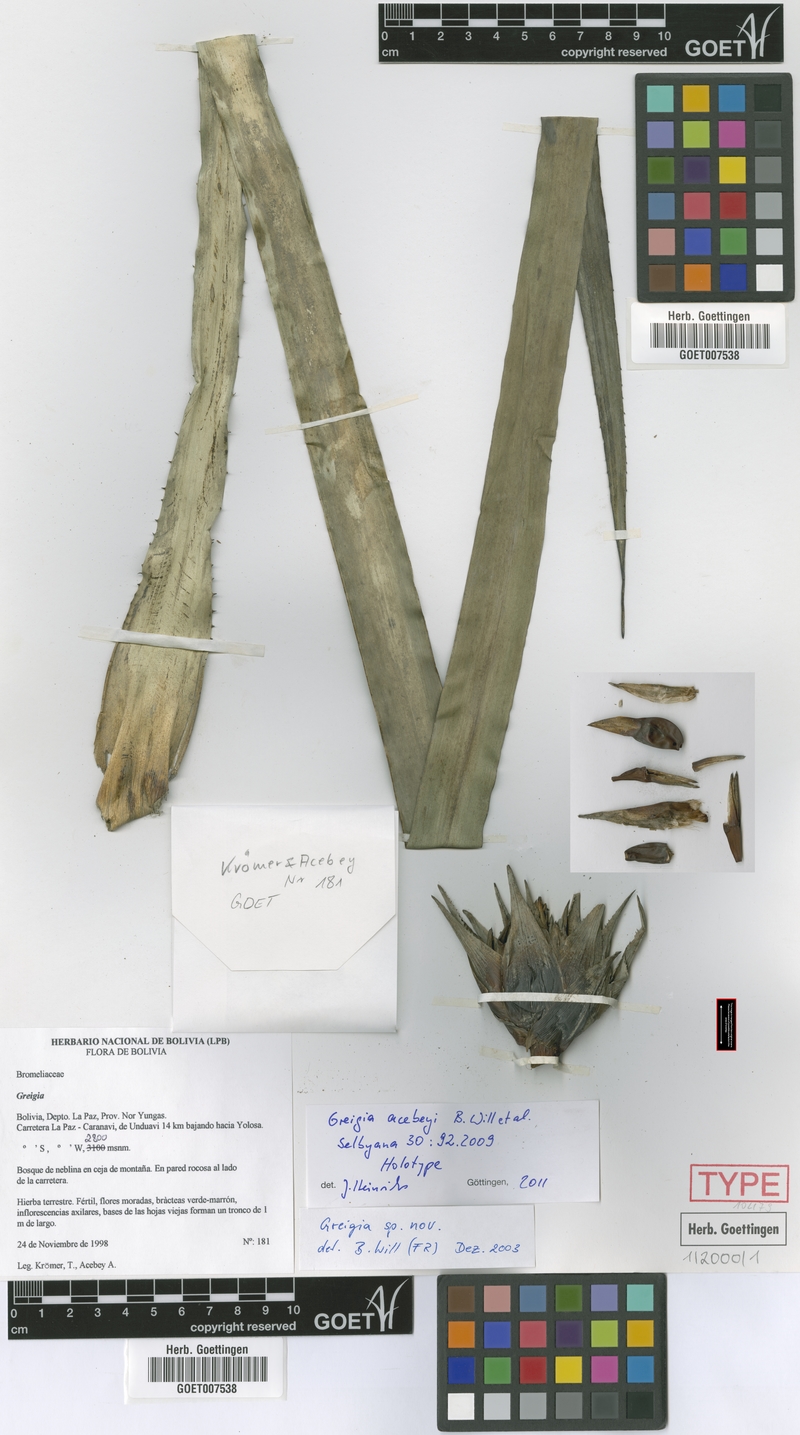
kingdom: Plantae
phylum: Tracheophyta
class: Liliopsida
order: Poales
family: Bromeliaceae
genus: Greigia
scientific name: Greigia acebeyi
